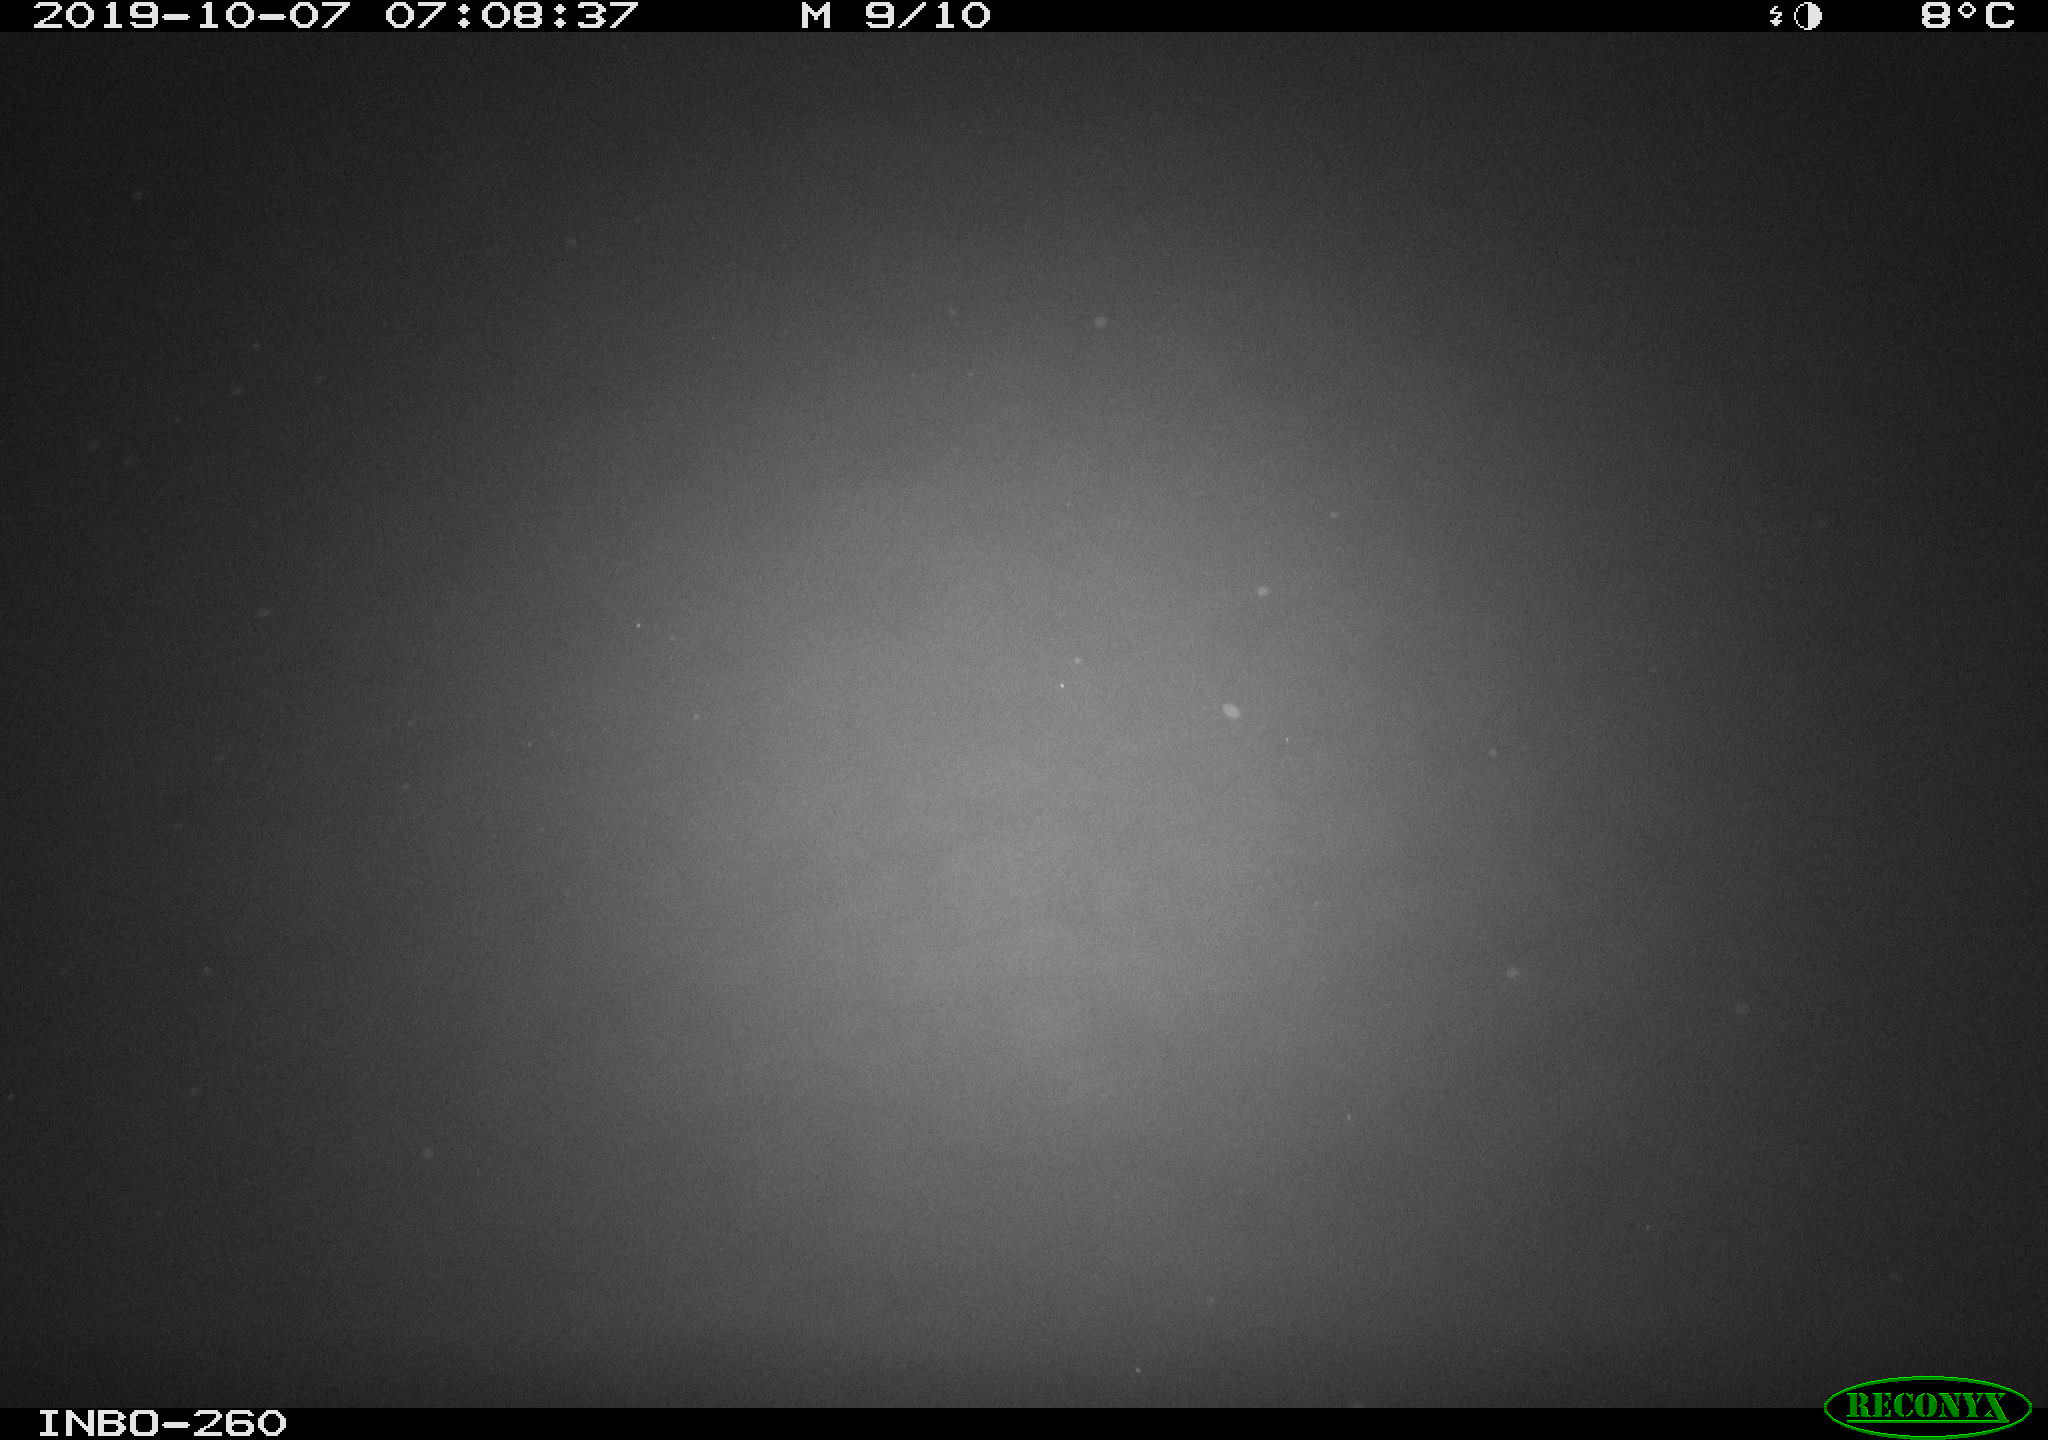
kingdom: Animalia
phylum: Chordata
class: Aves
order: Anseriformes
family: Anatidae
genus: Anas
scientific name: Anas platyrhynchos
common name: Mallard
